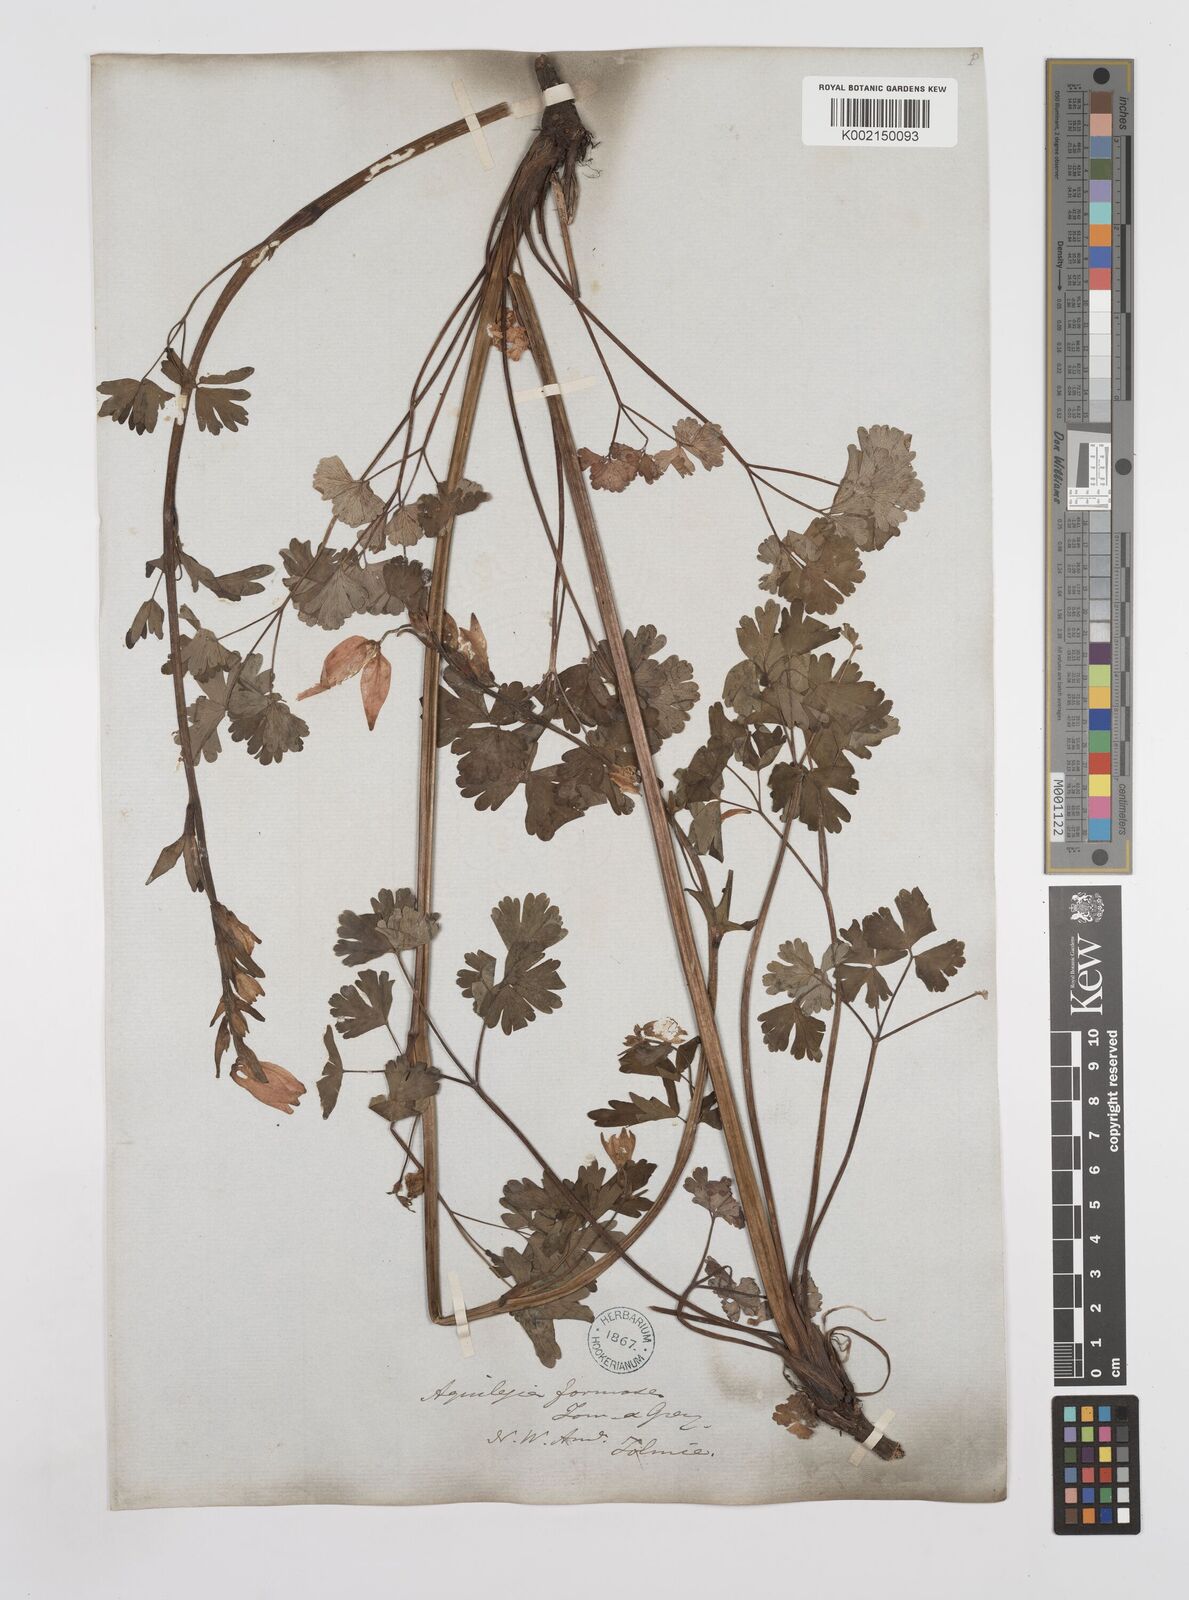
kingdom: Plantae
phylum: Tracheophyta
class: Magnoliopsida
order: Ranunculales
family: Ranunculaceae
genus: Aquilegia
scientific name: Aquilegia
